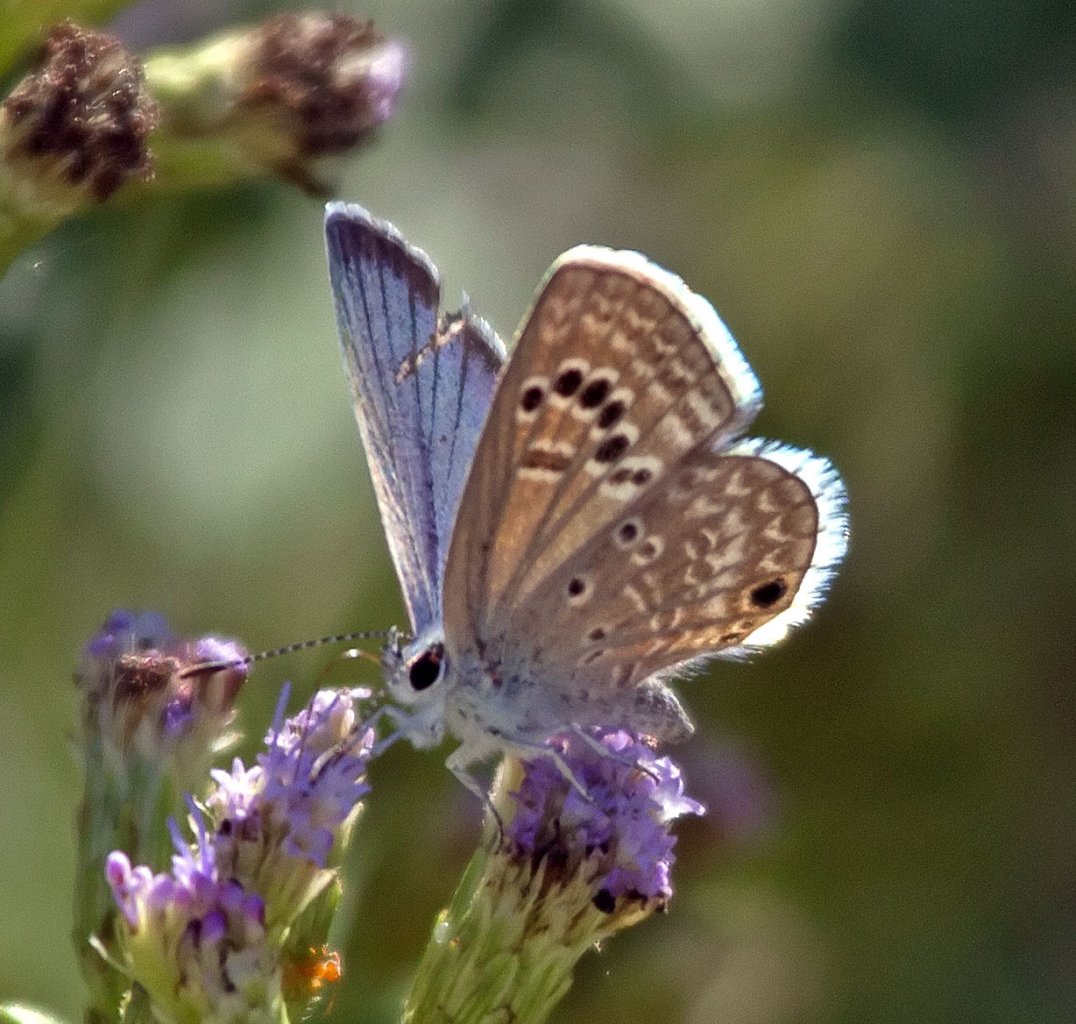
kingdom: Animalia
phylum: Arthropoda
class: Insecta
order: Lepidoptera
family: Lycaenidae
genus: Echinargus
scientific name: Echinargus isola
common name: Reakirt's Blue
